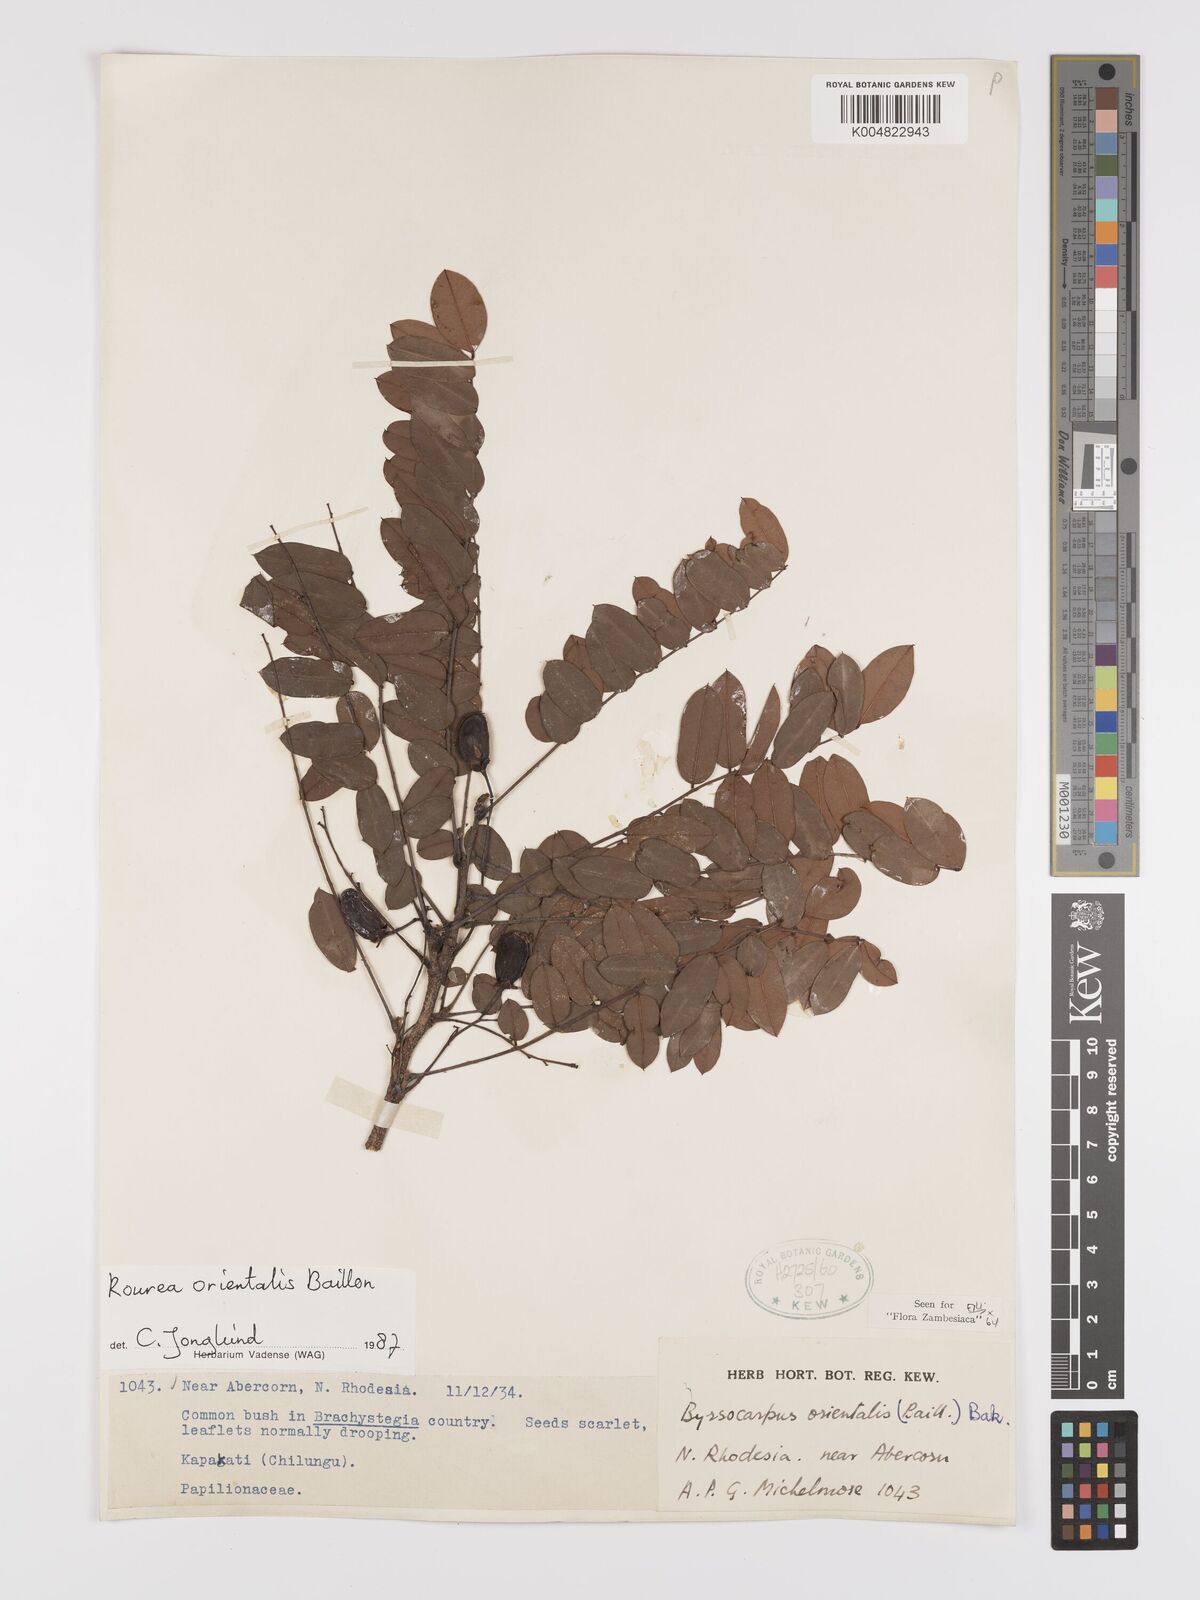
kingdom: Plantae
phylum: Tracheophyta
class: Magnoliopsida
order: Oxalidales
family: Connaraceae
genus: Rourea
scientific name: Rourea orientalis
